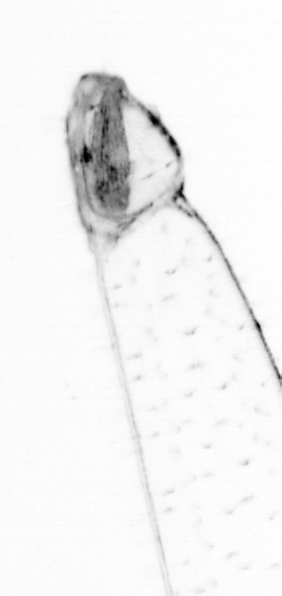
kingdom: Animalia
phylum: Chaetognatha
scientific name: Chaetognatha
